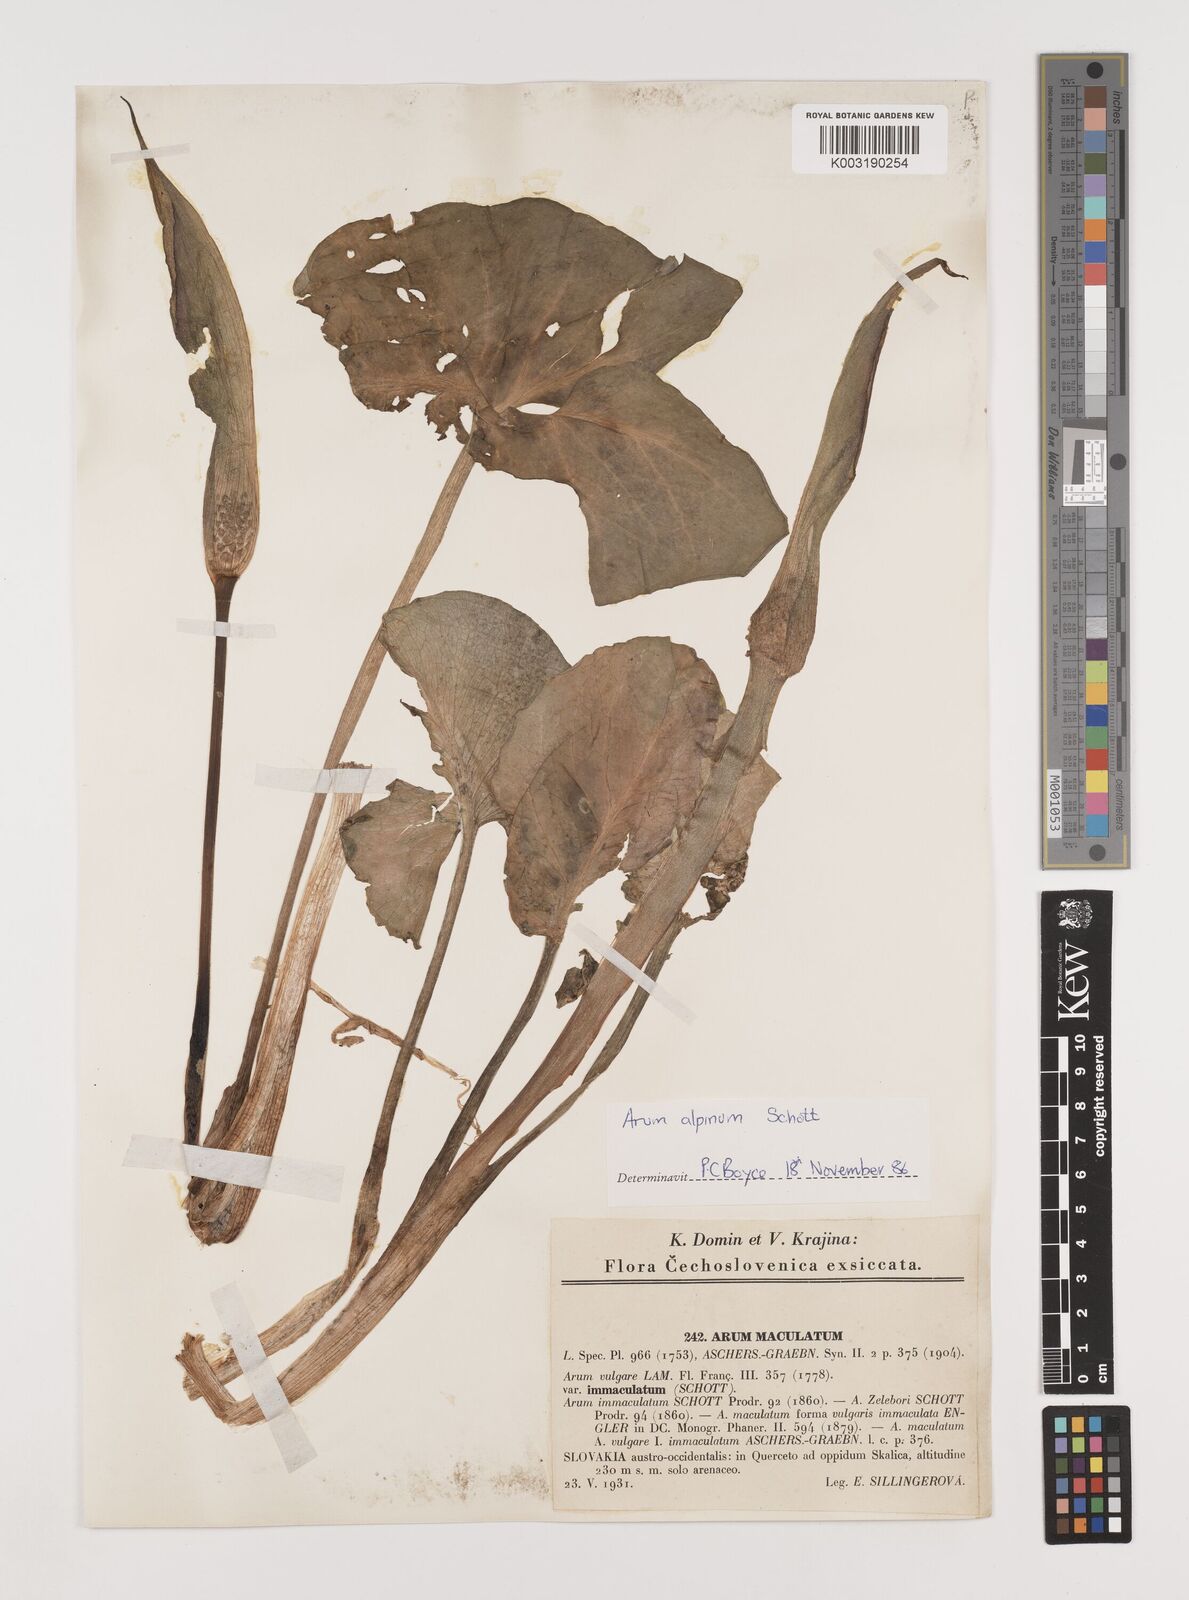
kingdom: Plantae
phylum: Tracheophyta
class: Liliopsida
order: Alismatales
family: Araceae
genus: Arum
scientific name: Arum cylindraceum
